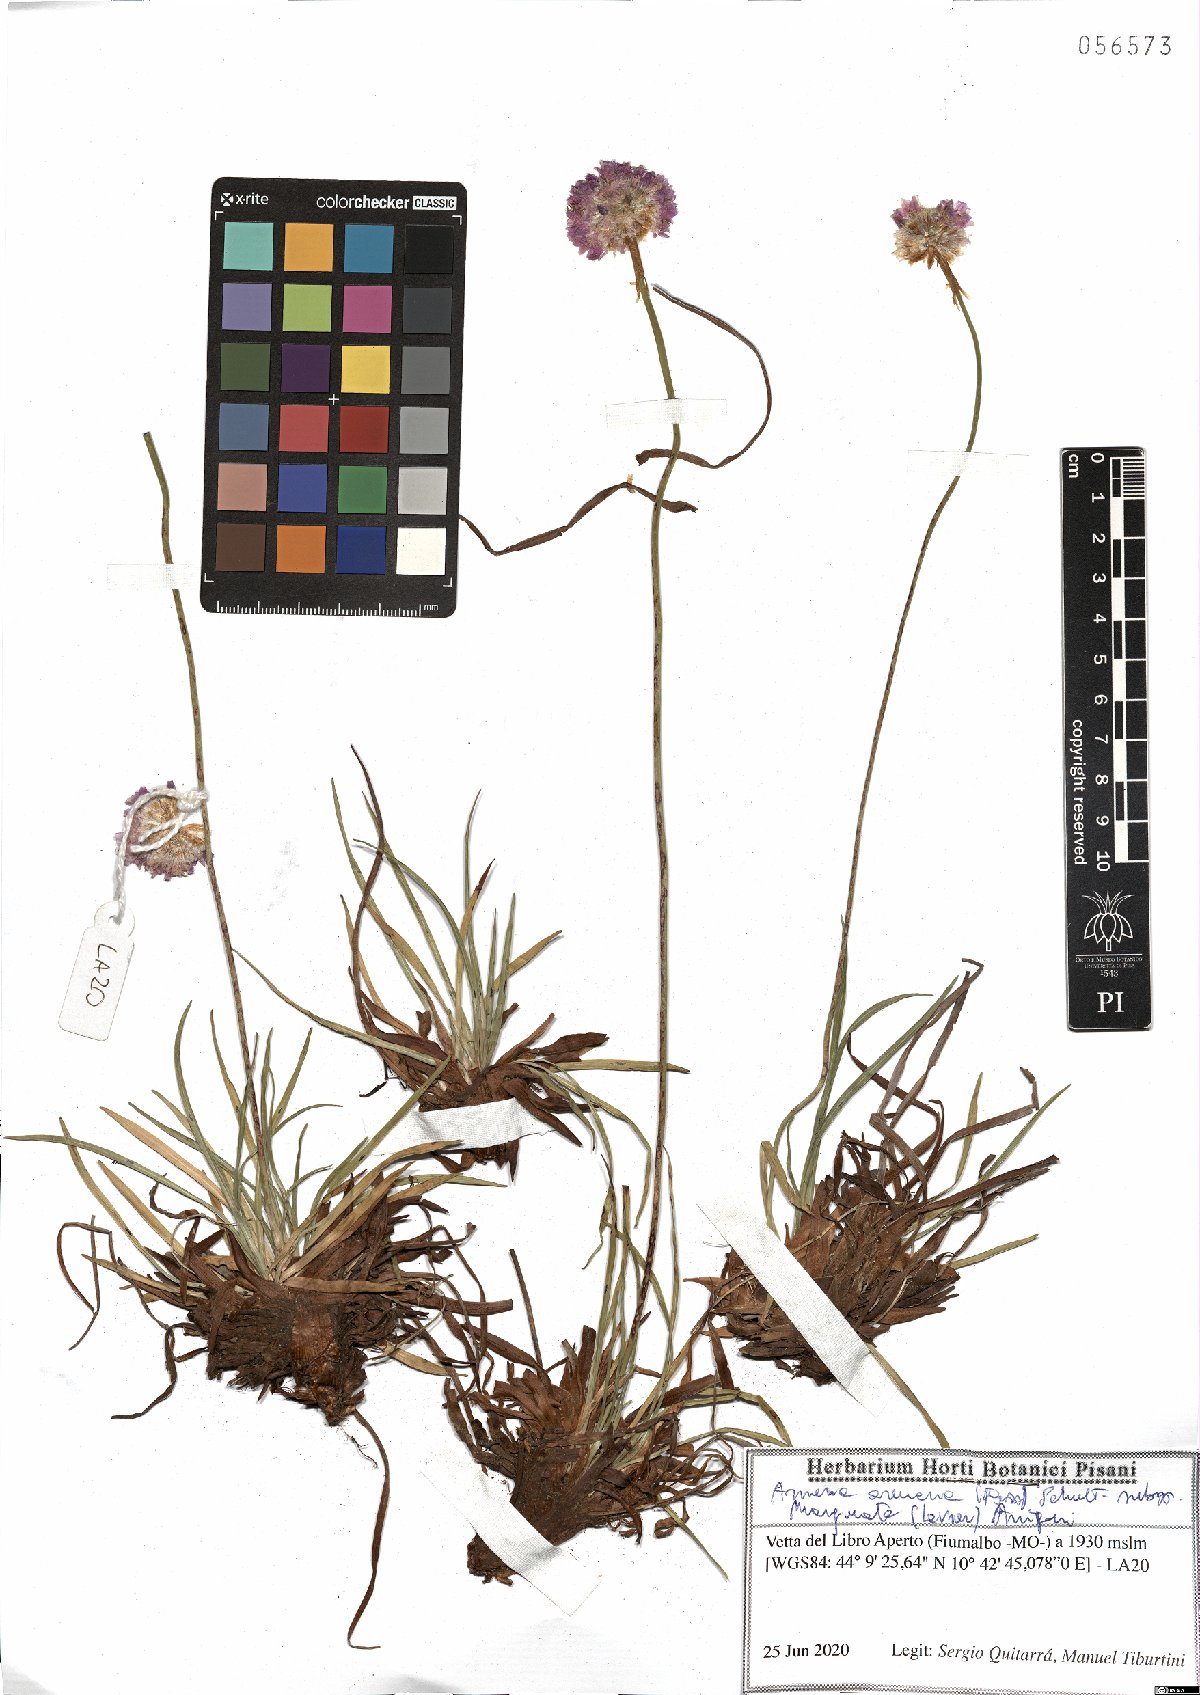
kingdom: Plantae
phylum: Tracheophyta
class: Magnoliopsida
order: Caryophyllales
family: Plumbaginaceae
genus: Armeria
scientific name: Armeria arenaria
